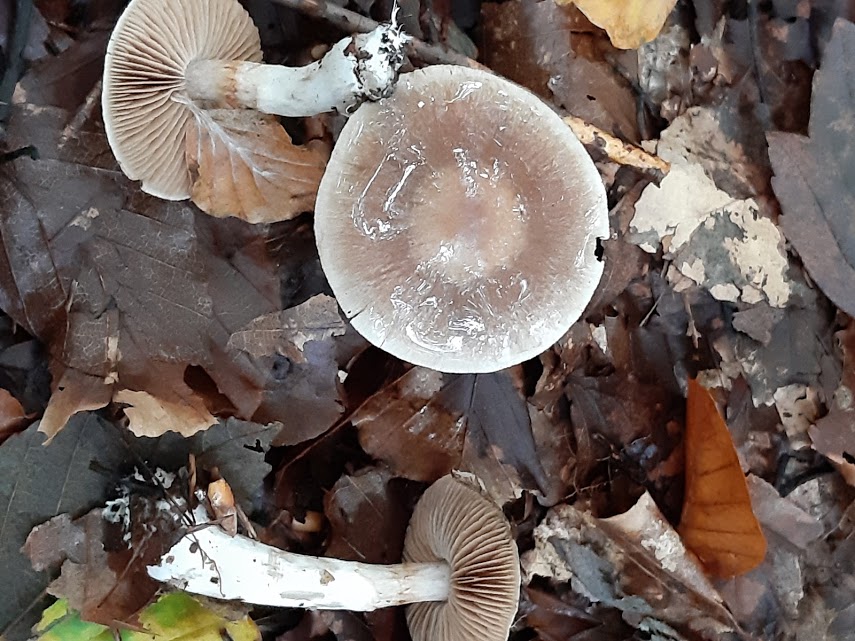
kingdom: Fungi
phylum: Basidiomycota
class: Agaricomycetes
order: Agaricales
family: Cortinariaceae
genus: Cortinarius
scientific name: Cortinarius
